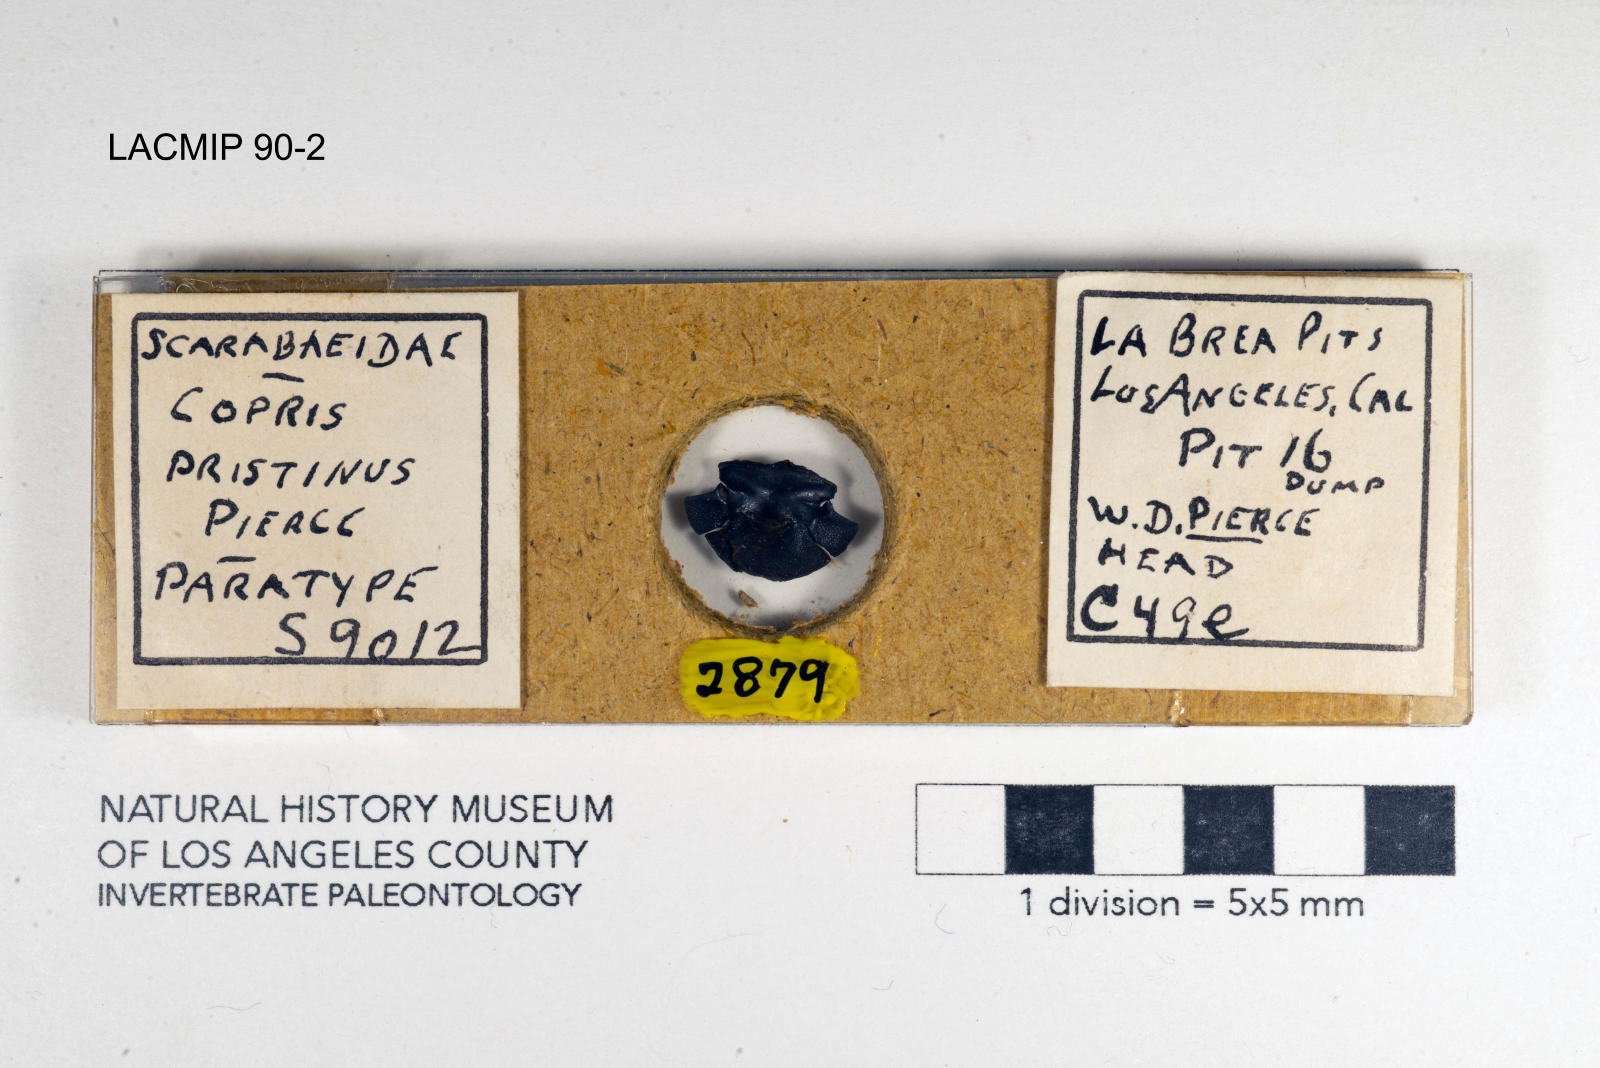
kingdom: Animalia
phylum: Arthropoda
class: Insecta
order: Coleoptera
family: Scarabaeidae
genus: Copris
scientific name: Copris pristinus
